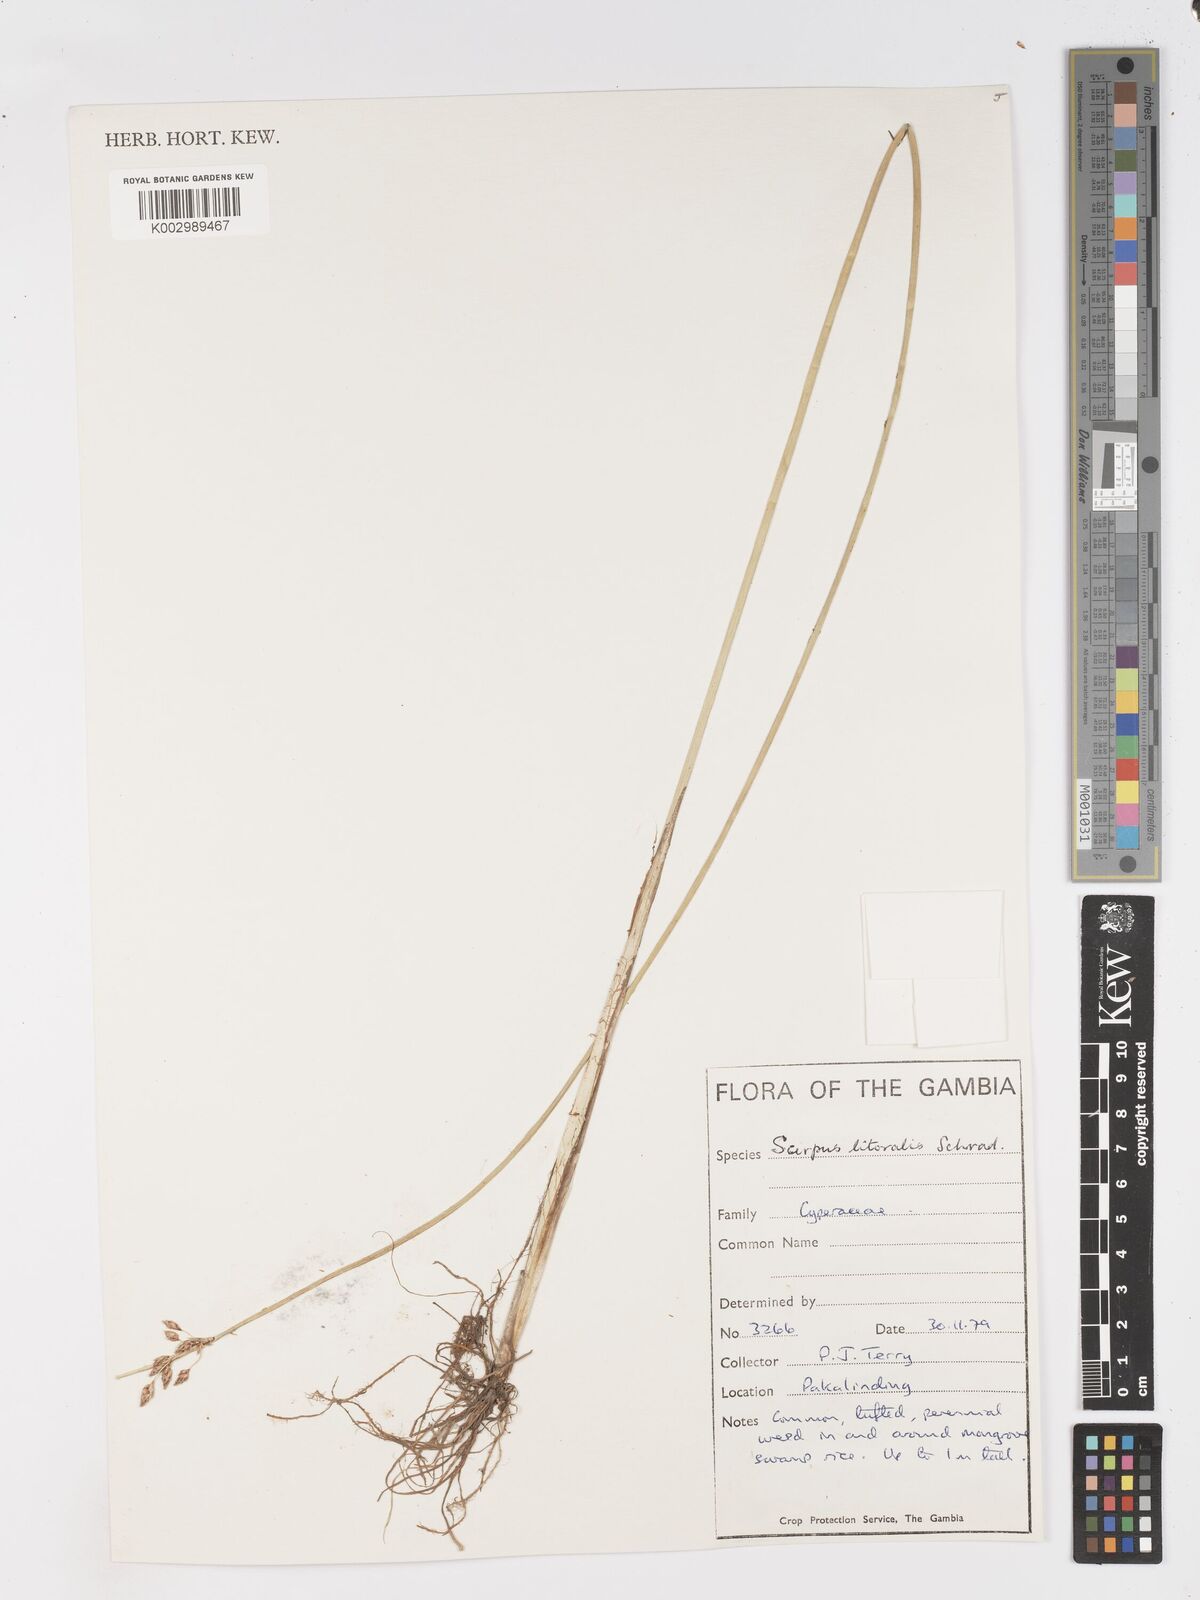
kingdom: Plantae
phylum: Tracheophyta
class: Liliopsida
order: Poales
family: Cyperaceae
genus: Schoenoplectus
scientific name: Schoenoplectus litoralis
